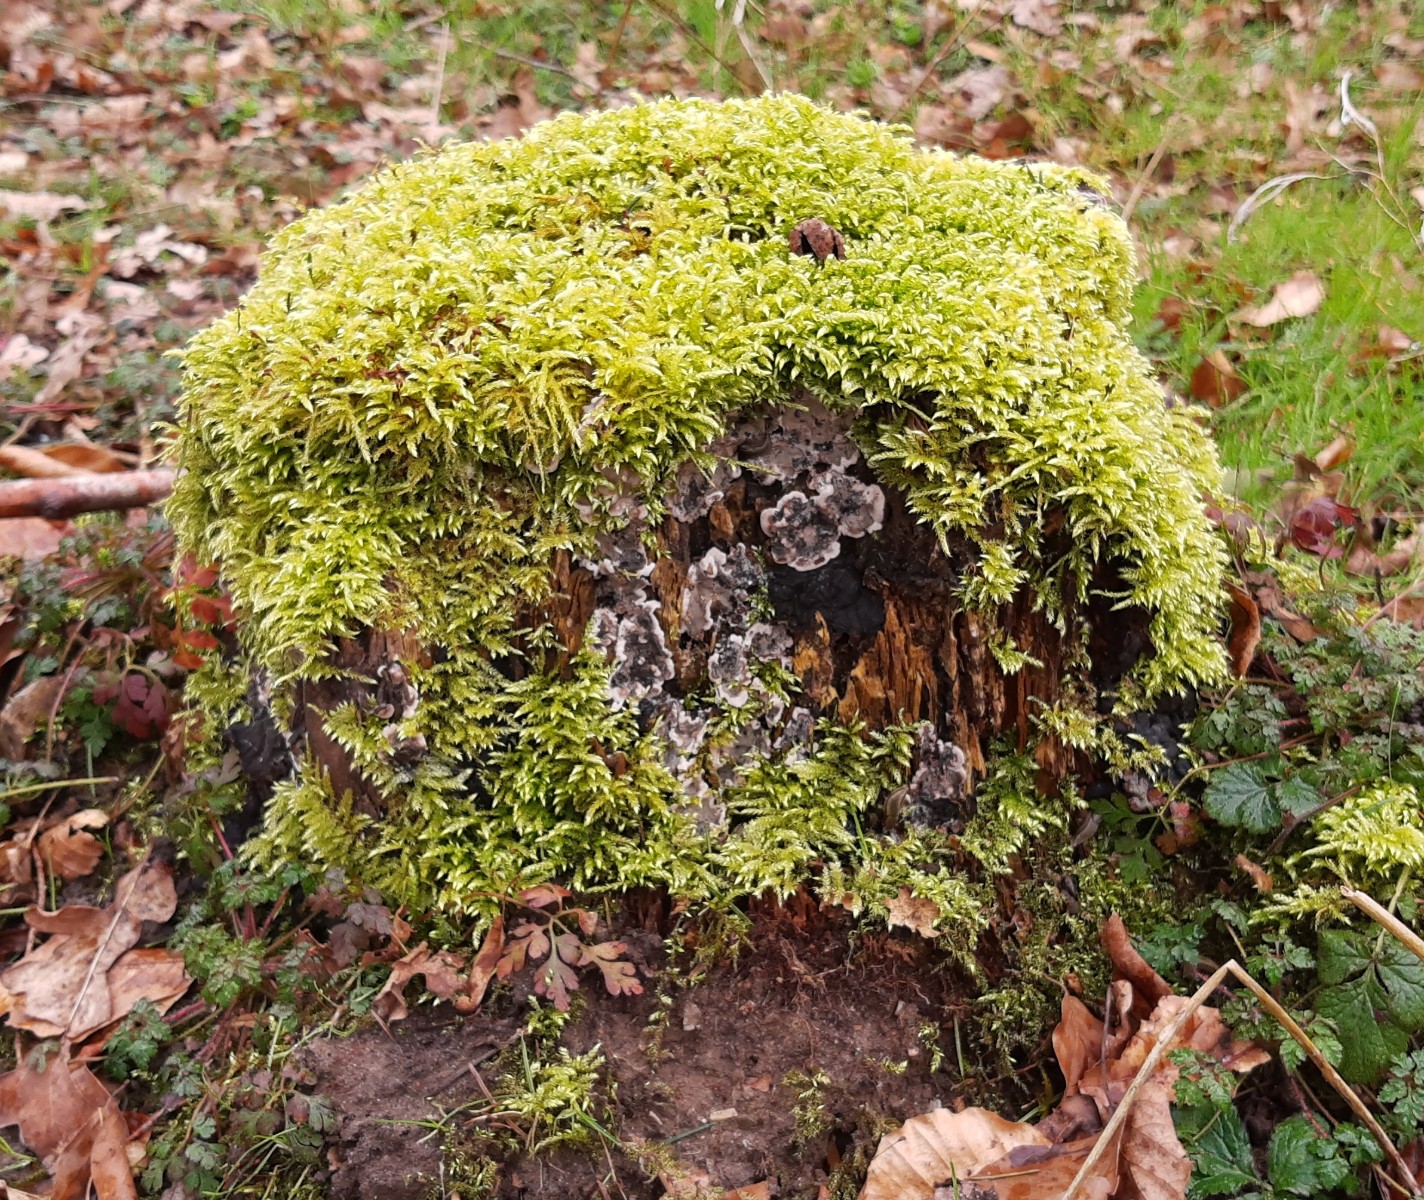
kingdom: Fungi
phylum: Ascomycota
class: Sordariomycetes
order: Xylariales
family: Xylariaceae
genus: Kretzschmaria
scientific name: Kretzschmaria deusta
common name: stor kulsvamp
